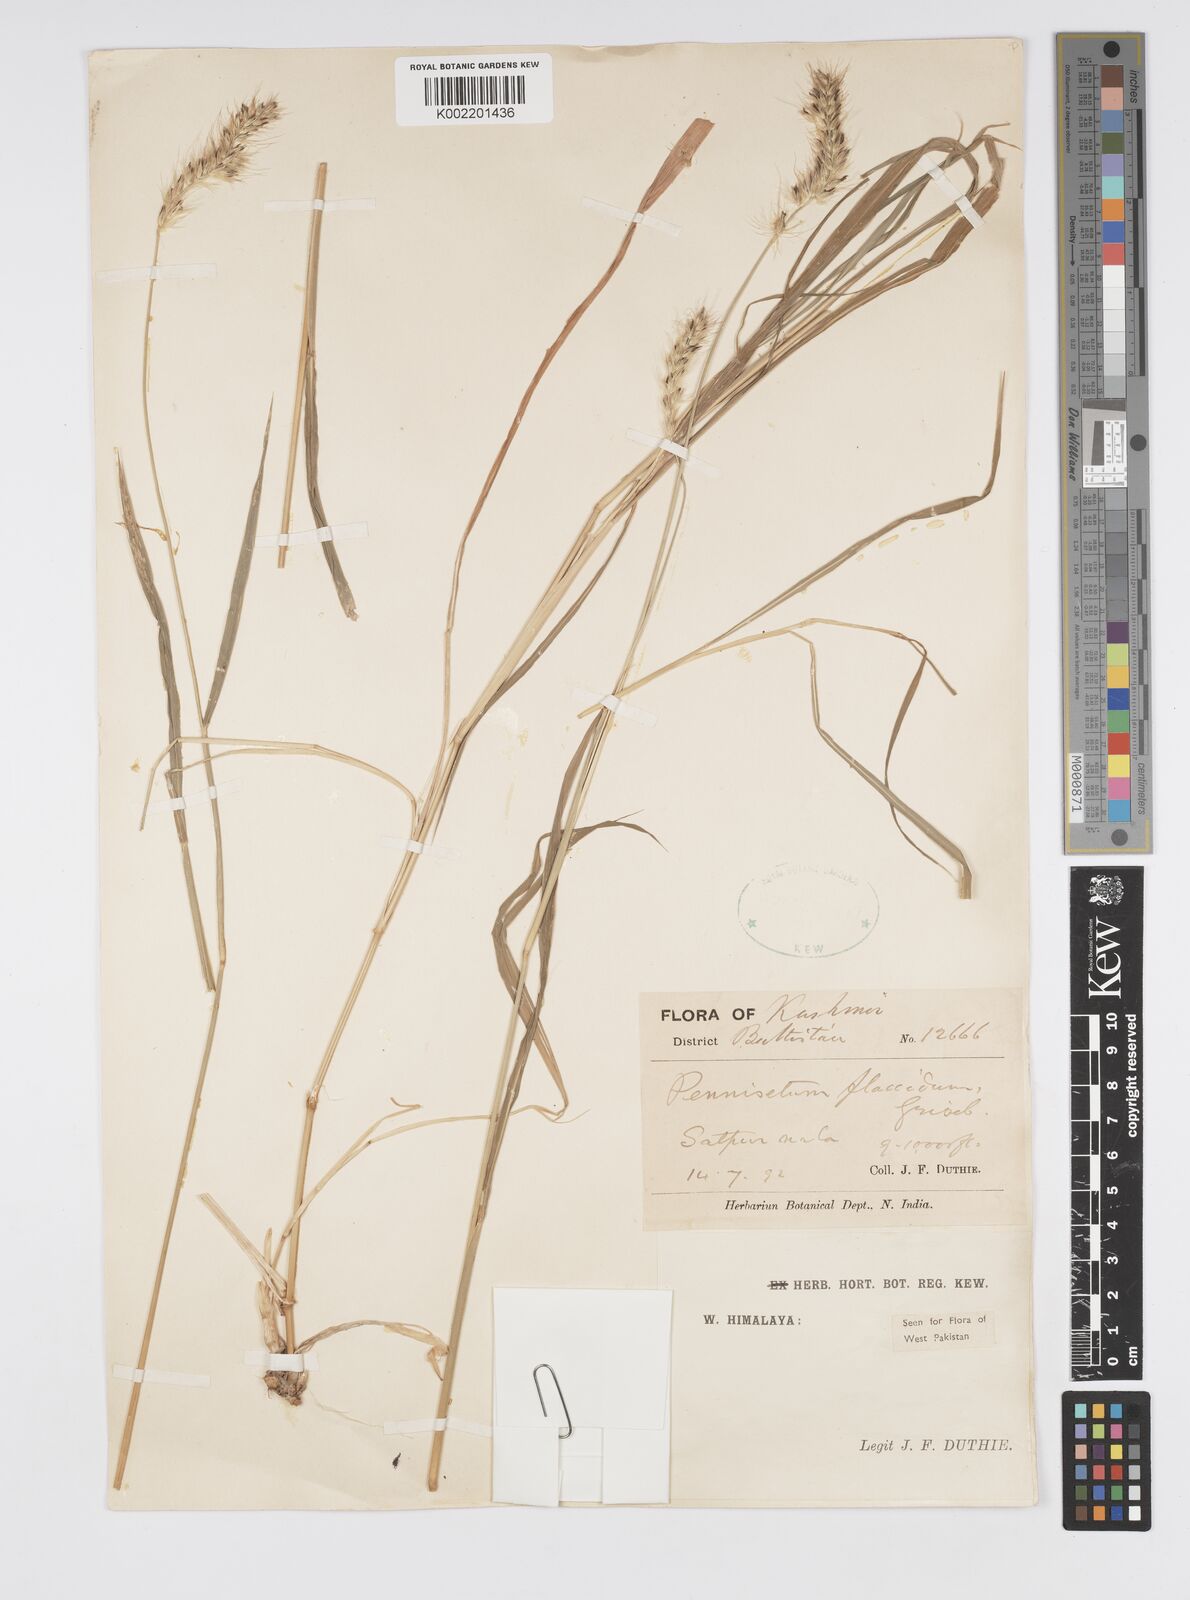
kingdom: Plantae
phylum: Tracheophyta
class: Liliopsida
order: Poales
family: Poaceae
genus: Cenchrus
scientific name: Cenchrus flaccidus
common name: Flaccid grass
